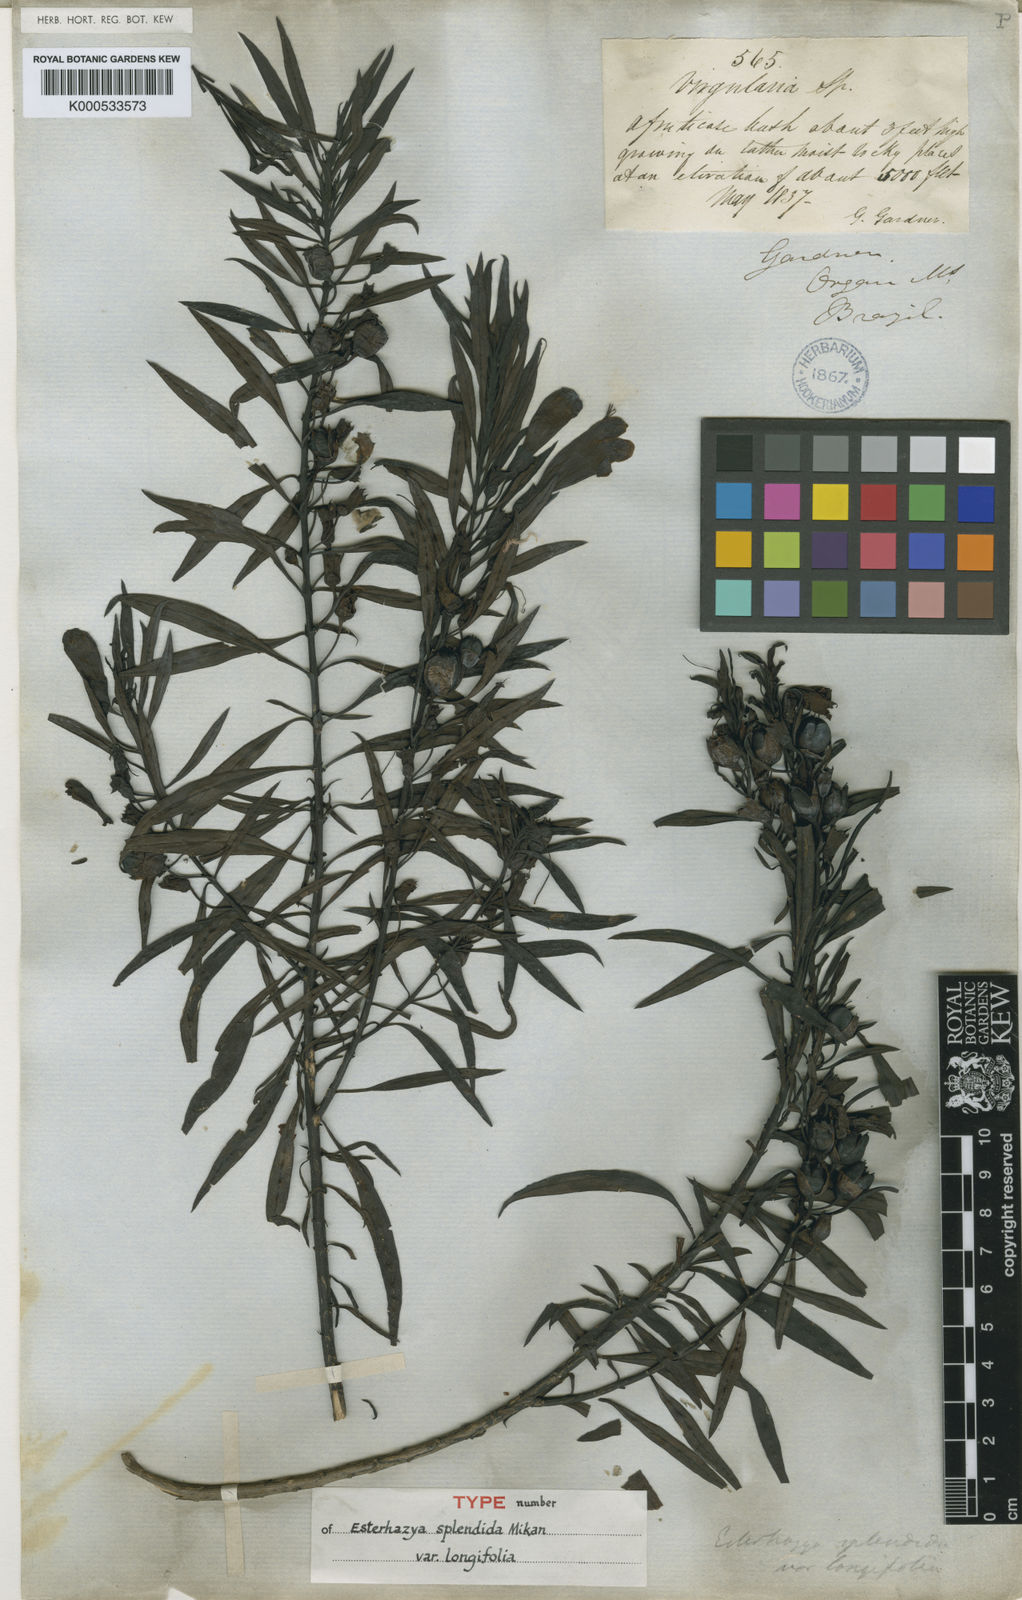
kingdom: Plantae
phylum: Tracheophyta
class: Magnoliopsida
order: Lamiales
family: Orobanchaceae
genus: Esterhazya
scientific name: Esterhazya splendida
